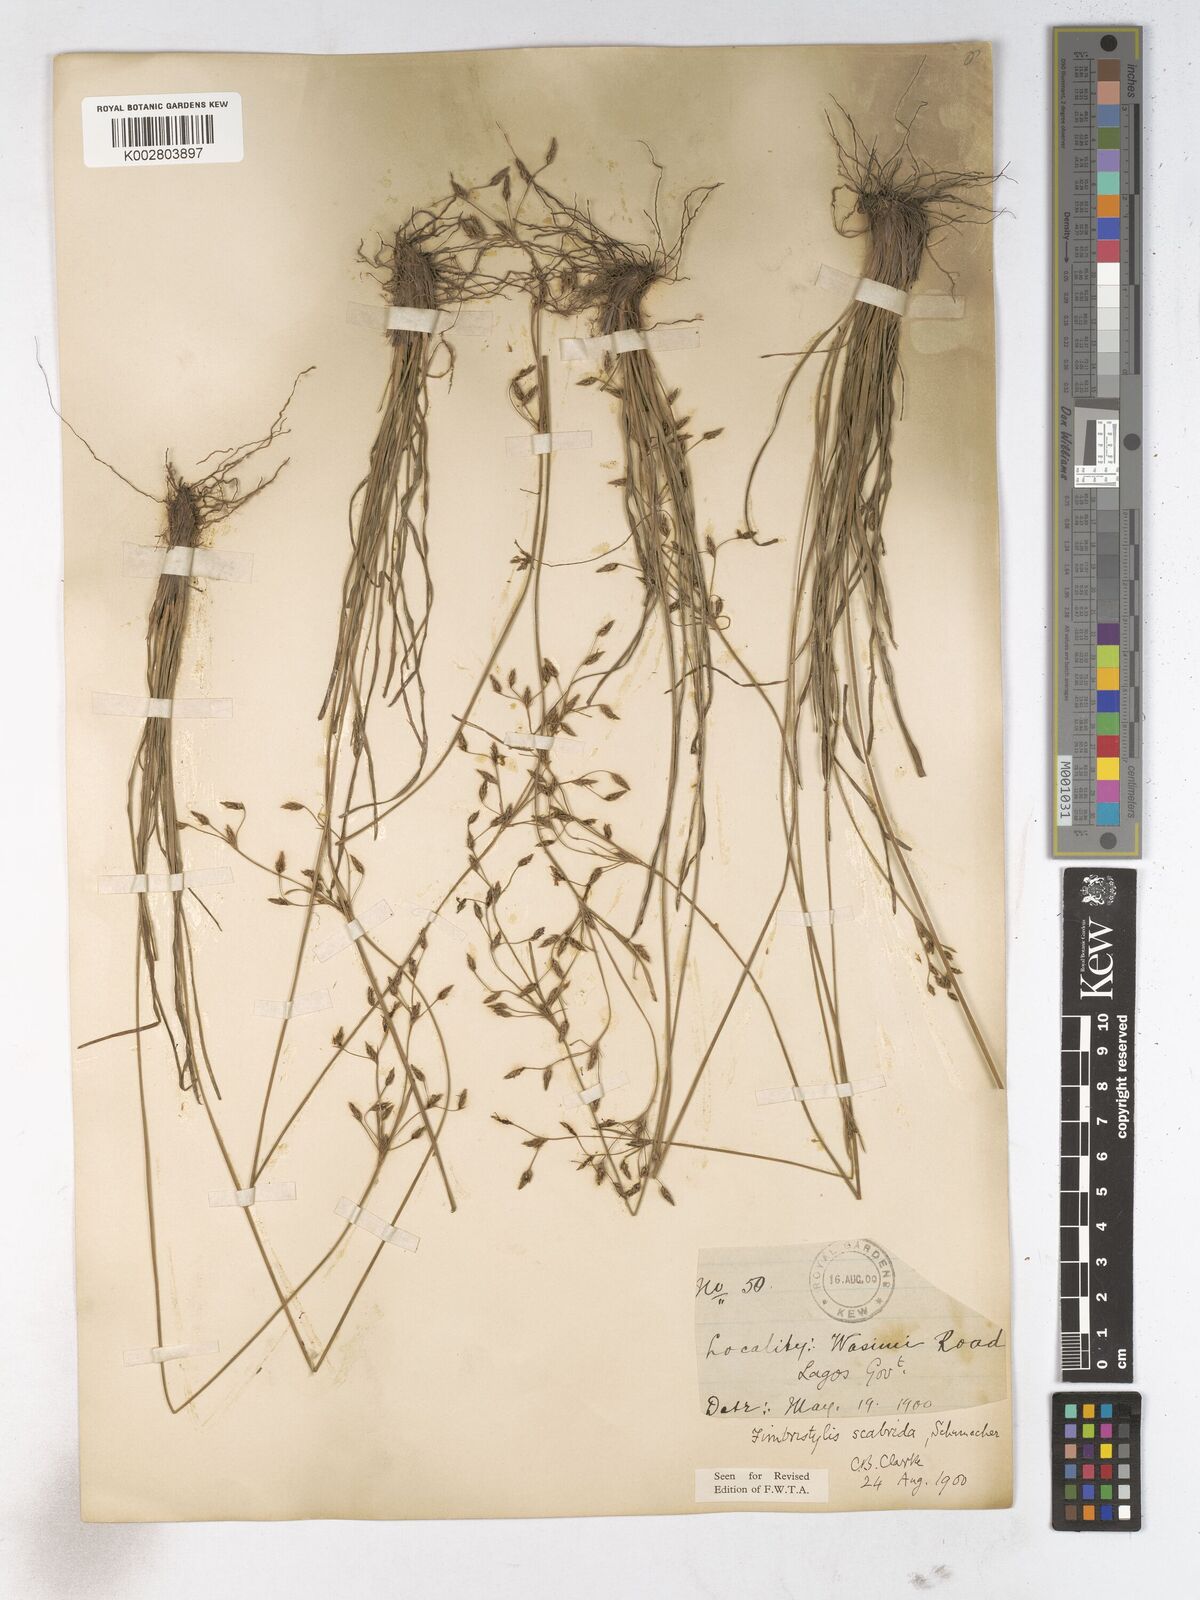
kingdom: Plantae
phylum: Tracheophyta
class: Liliopsida
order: Poales
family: Cyperaceae
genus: Fimbristylis
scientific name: Fimbristylis scabrida
